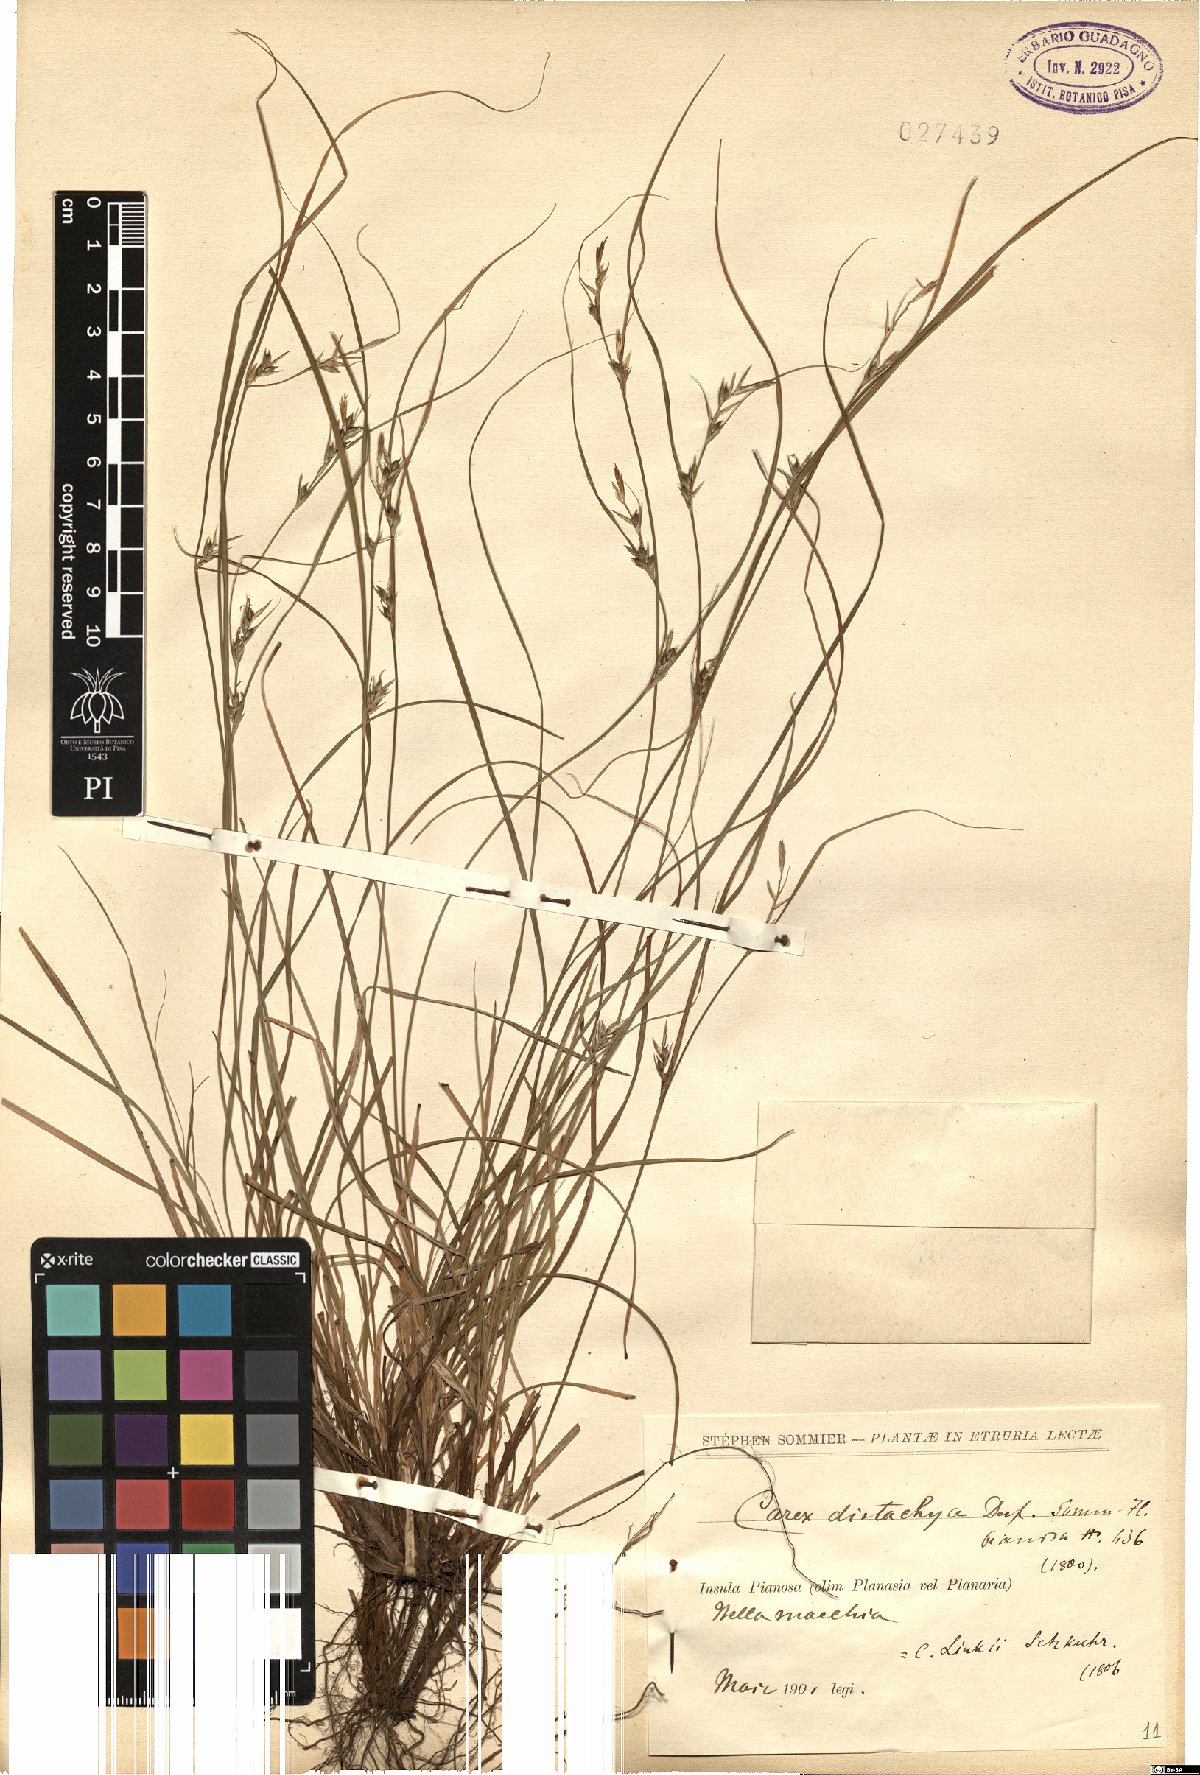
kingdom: Plantae
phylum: Tracheophyta
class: Liliopsida
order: Poales
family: Cyperaceae
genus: Carex
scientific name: Carex distachya
